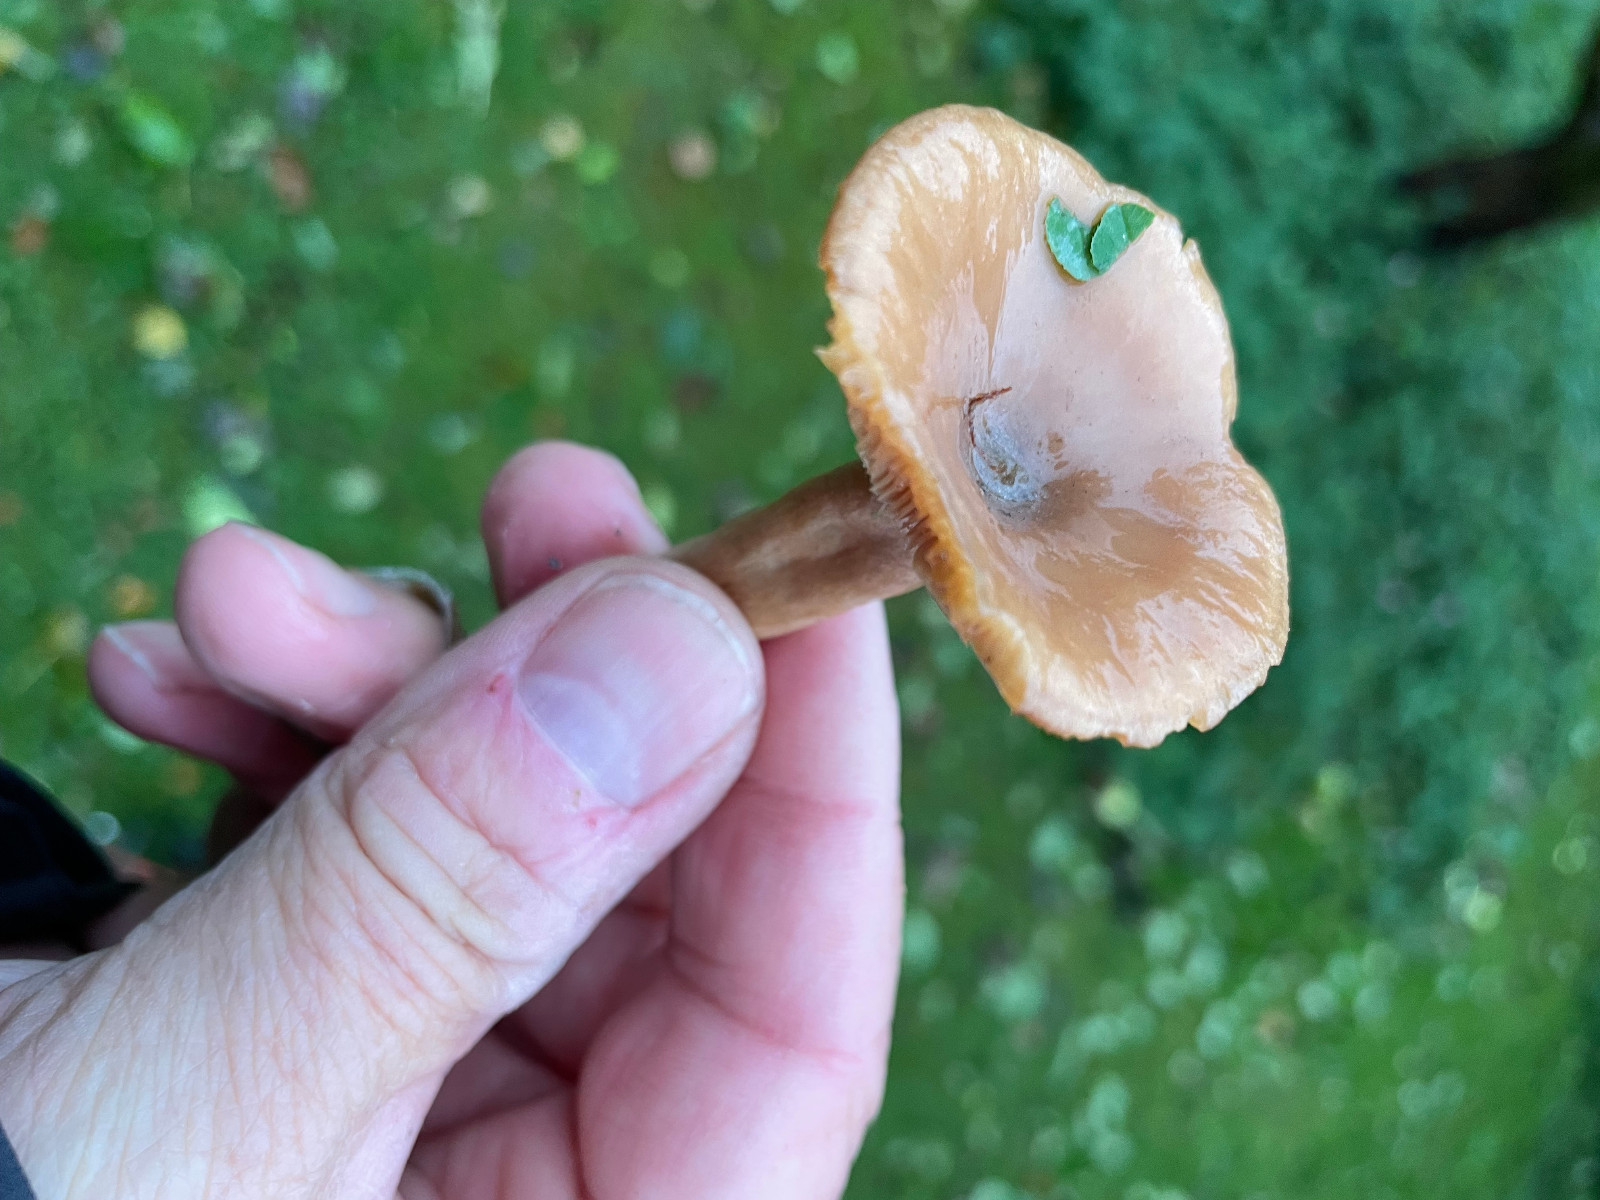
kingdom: Fungi
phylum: Basidiomycota
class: Agaricomycetes
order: Agaricales
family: Tricholomataceae
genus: Cystoderma
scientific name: Cystoderma amianthinum
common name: okkergul grynhat
